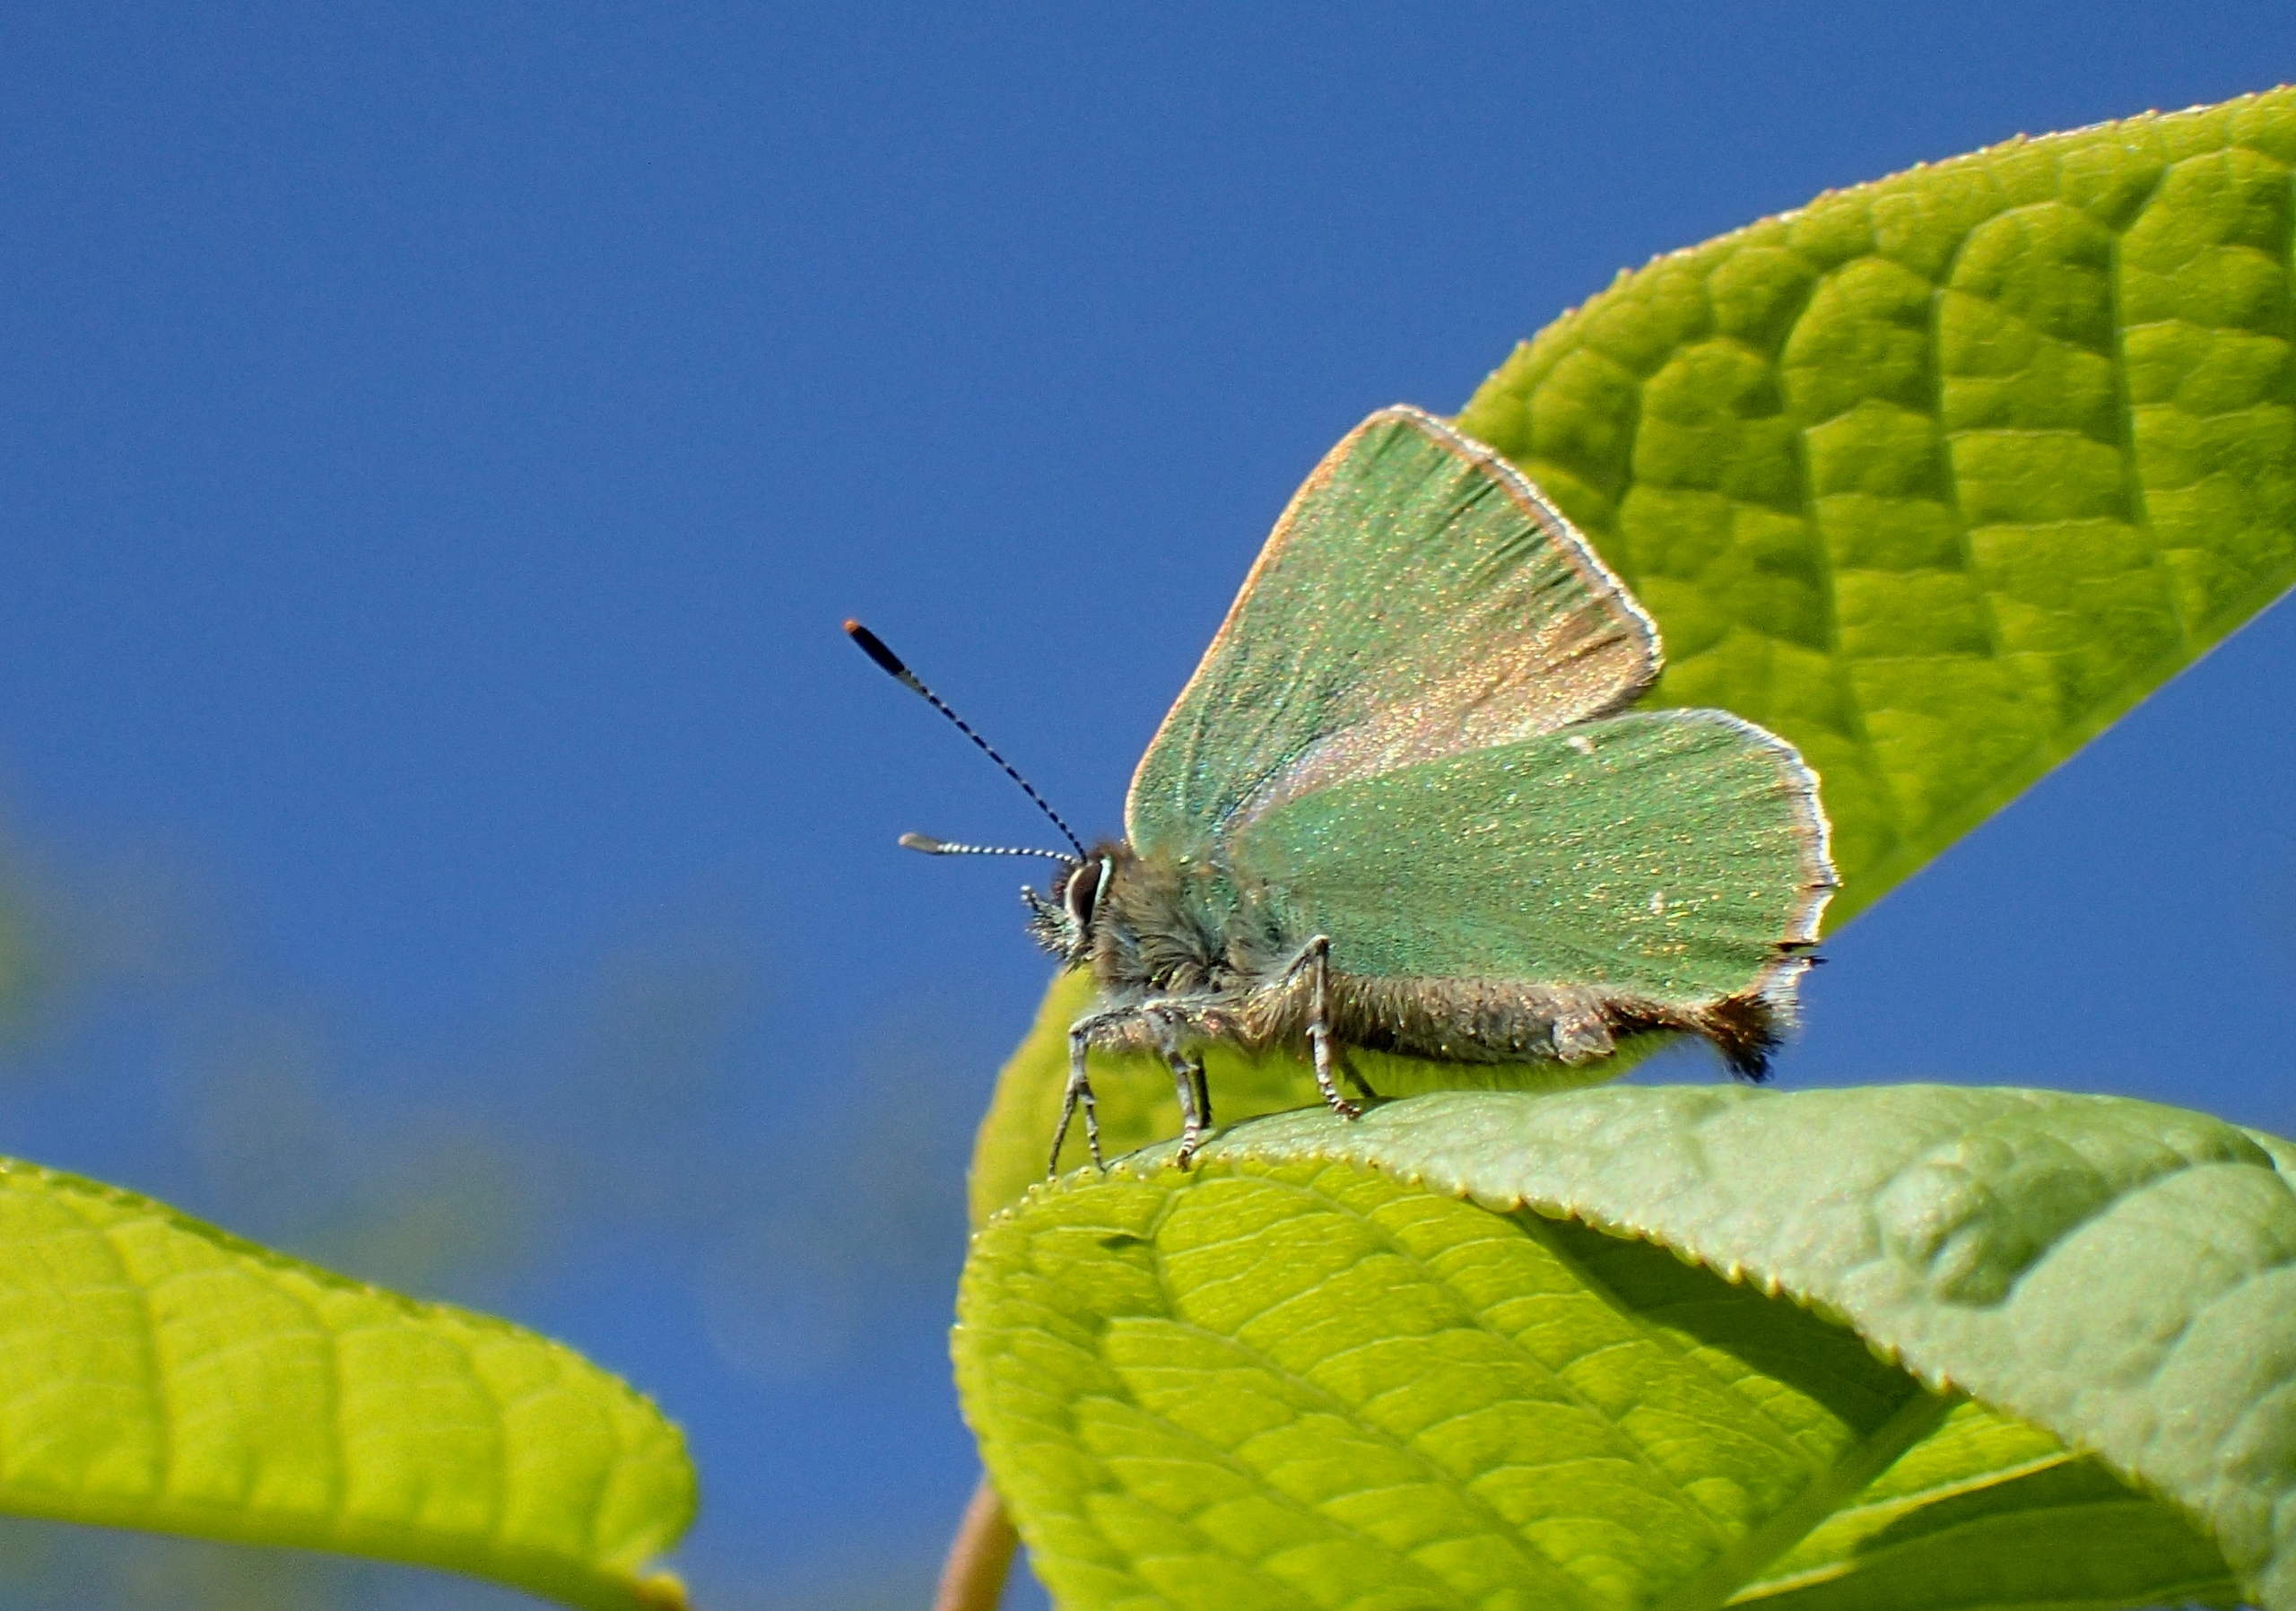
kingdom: Animalia
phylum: Arthropoda
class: Insecta
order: Lepidoptera
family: Lycaenidae
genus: Callophrys
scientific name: Callophrys rubi
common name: Grøn busksommerfugl
